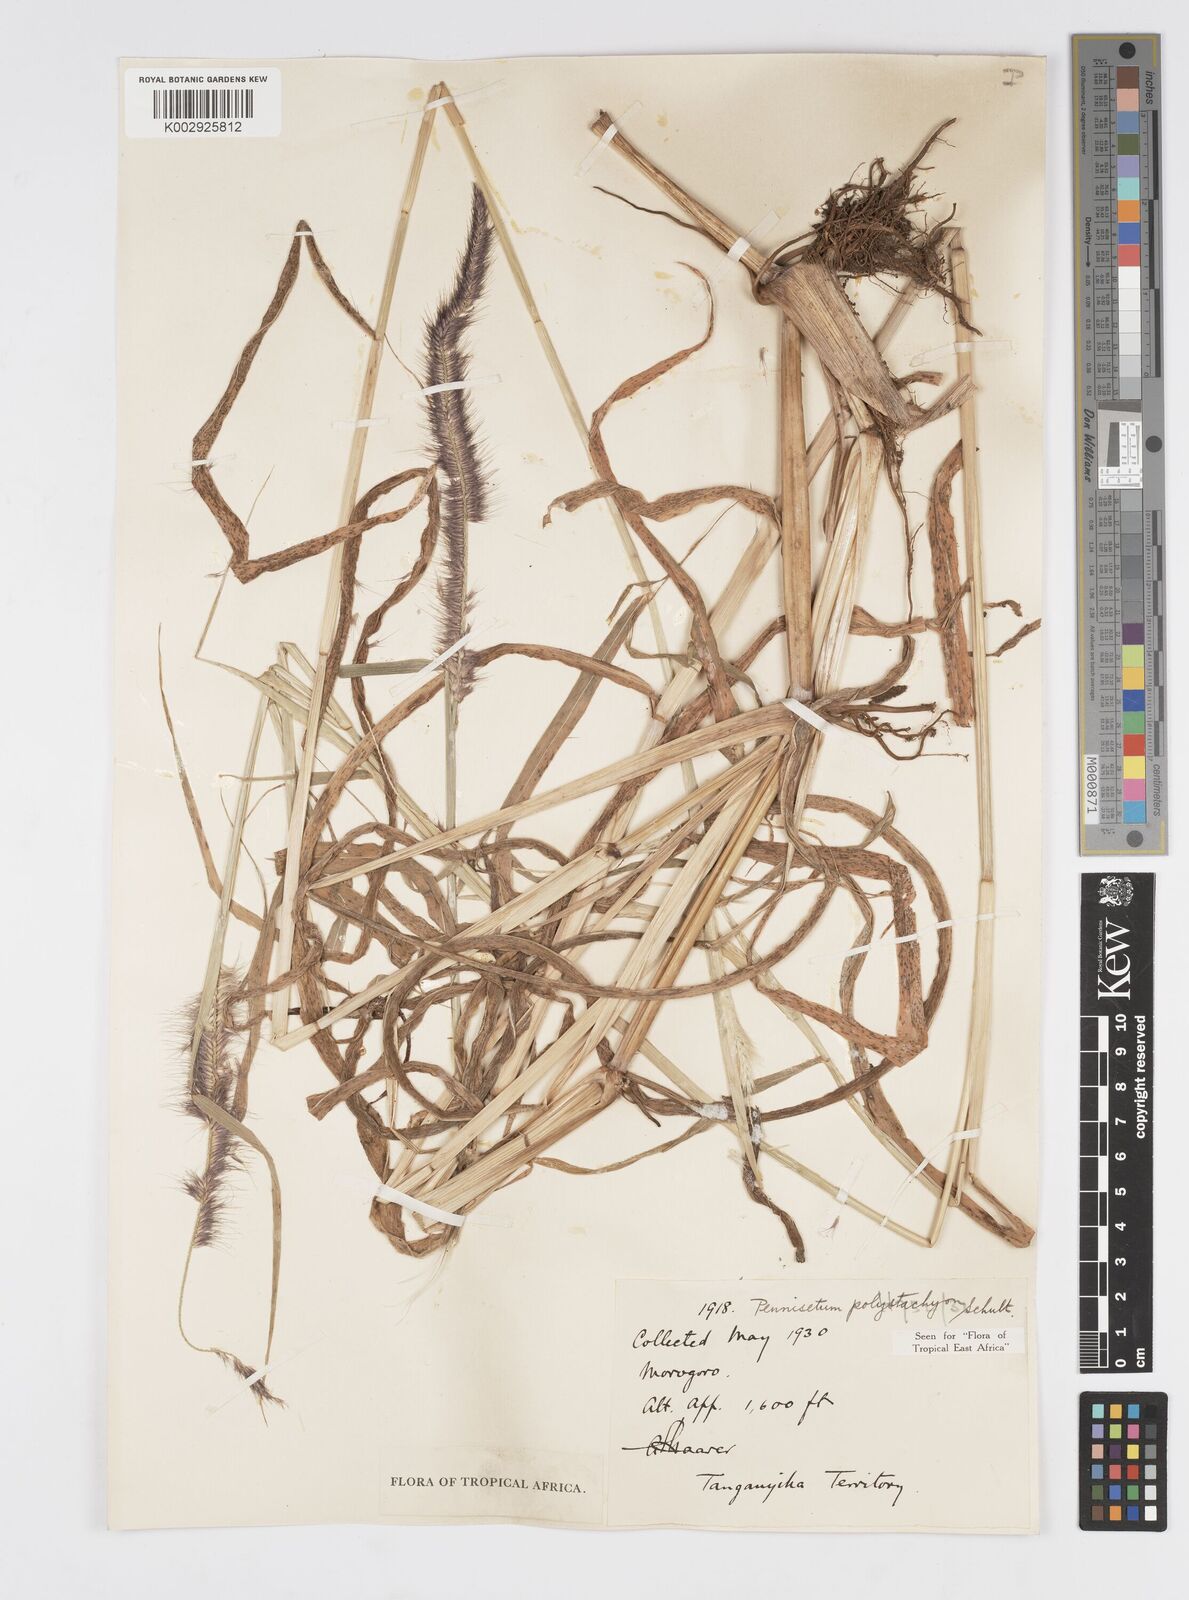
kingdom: Plantae
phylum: Tracheophyta
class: Liliopsida
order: Poales
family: Poaceae
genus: Setaria
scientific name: Setaria parviflora
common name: Knotroot bristle-grass
